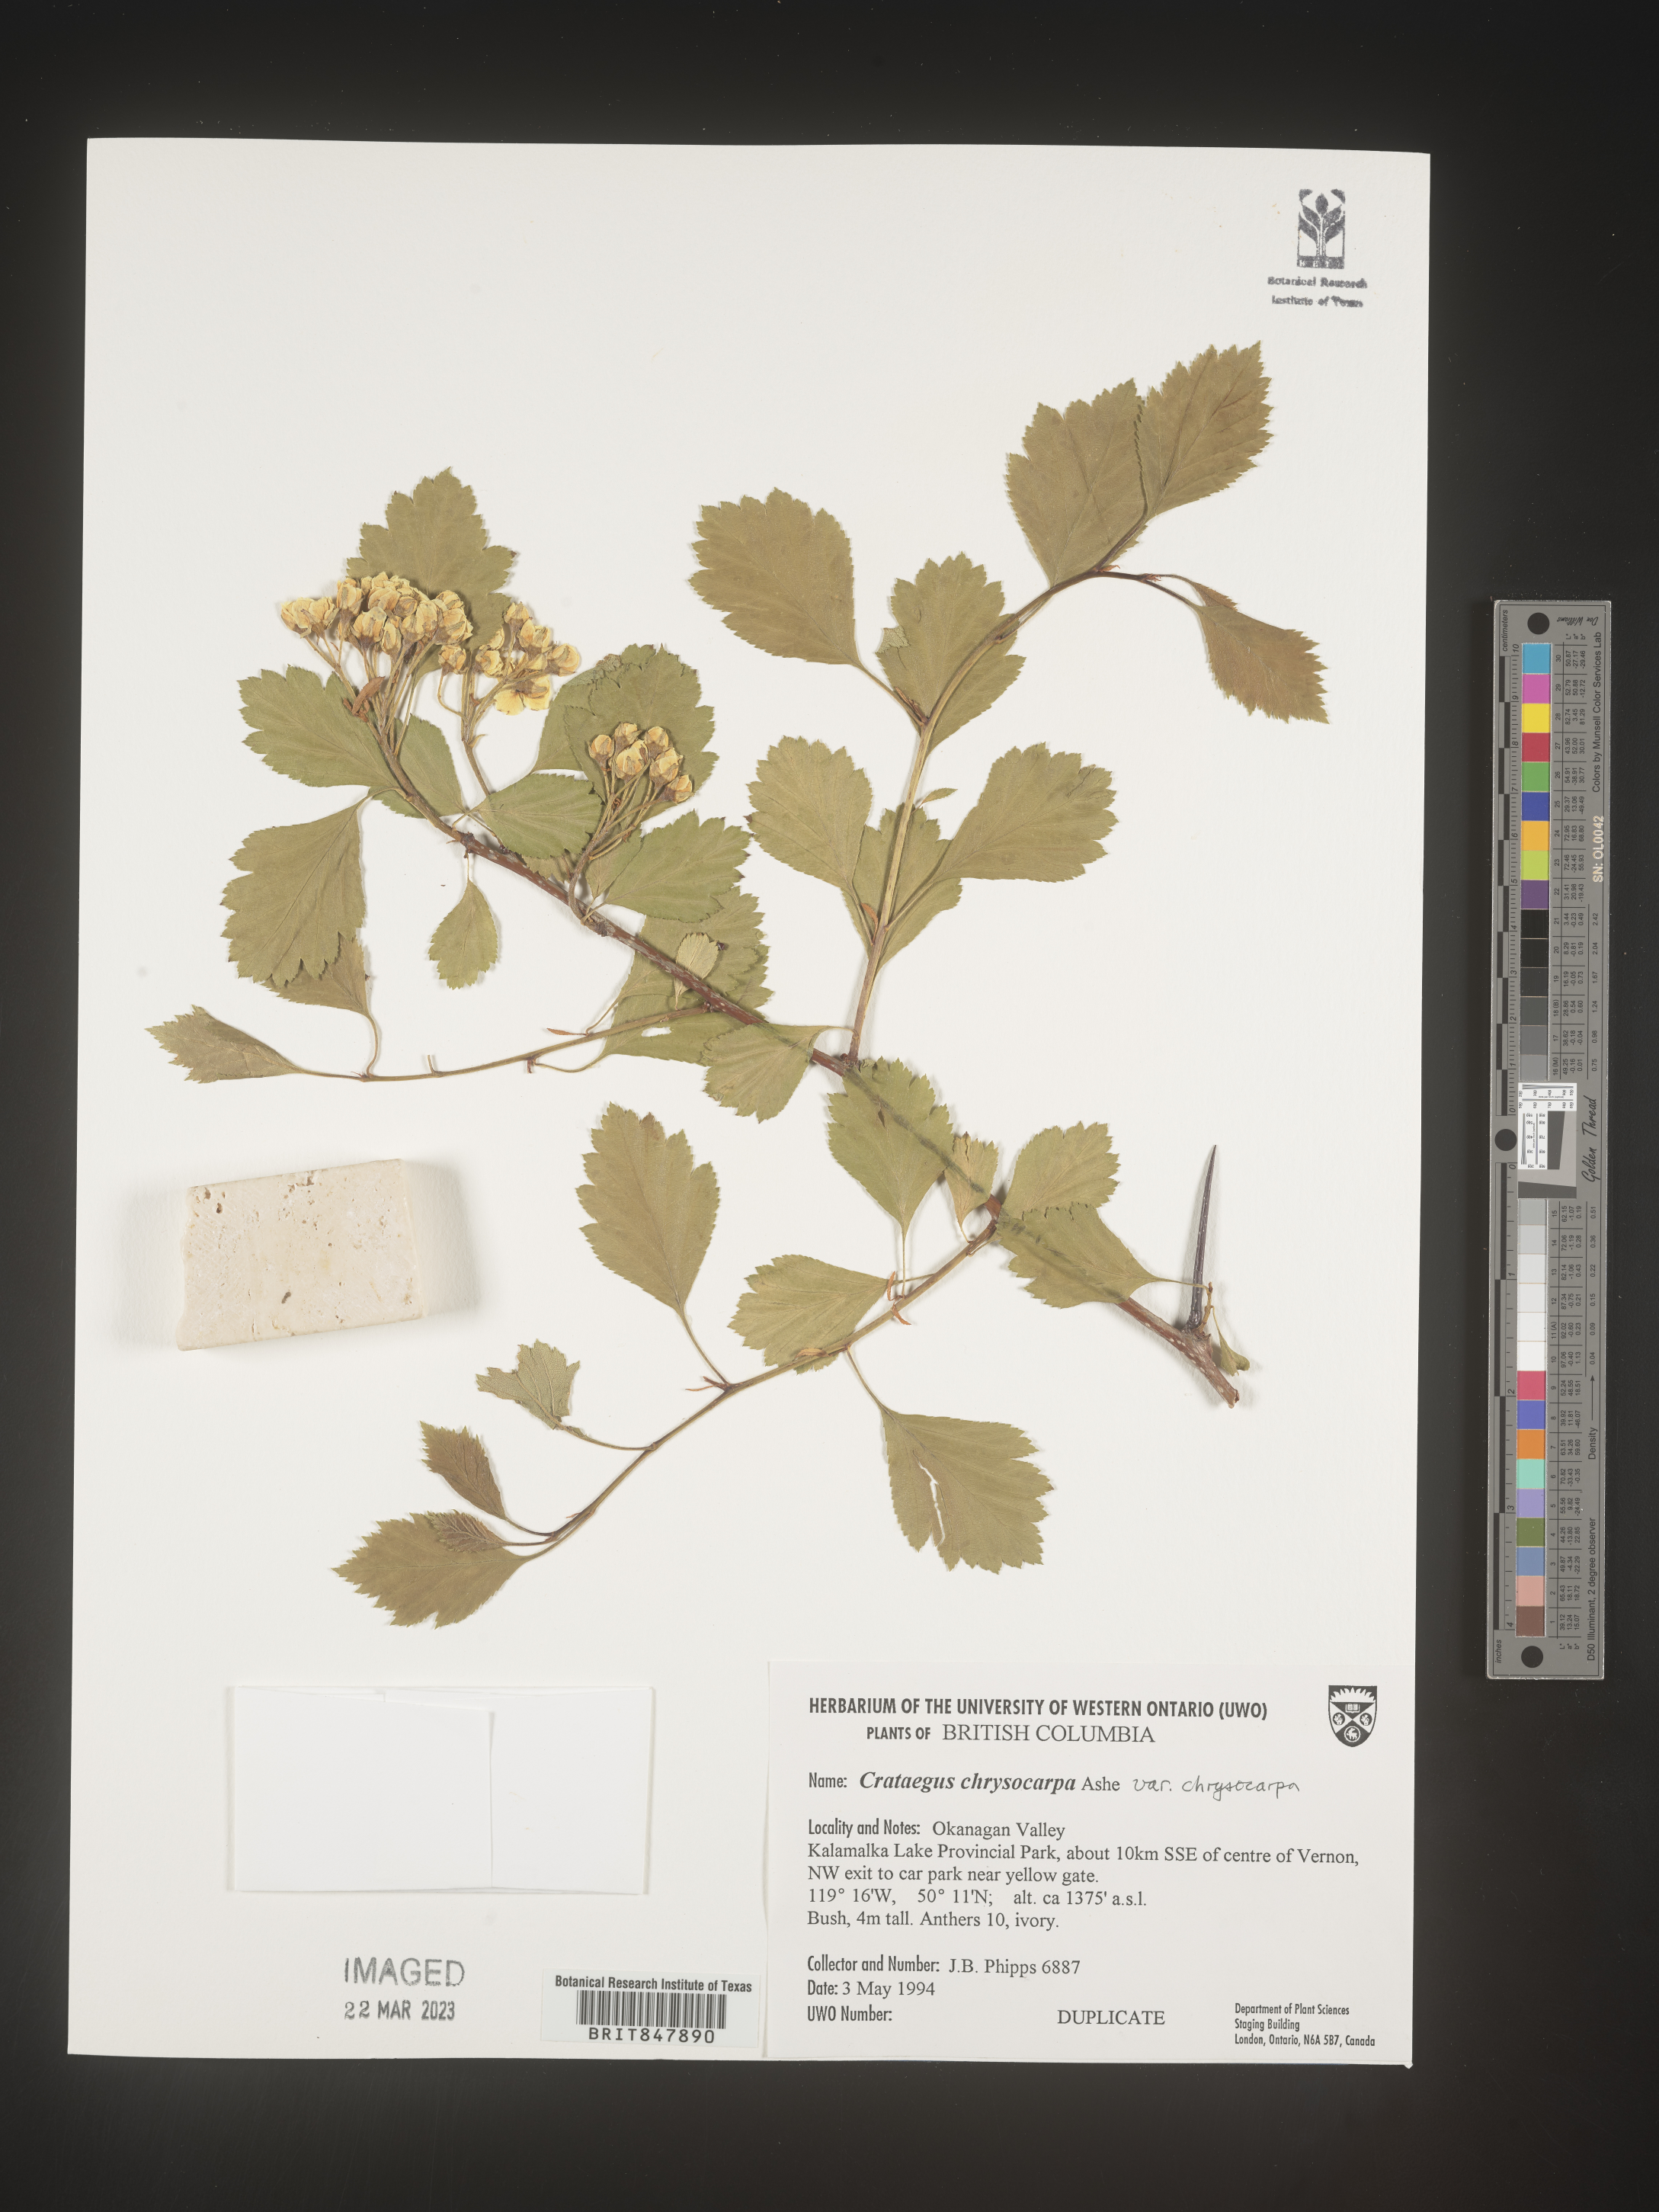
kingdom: Plantae
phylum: Tracheophyta
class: Magnoliopsida
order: Rosales
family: Rosaceae
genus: Crataegus
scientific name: Crataegus chrysocarpa
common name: Fire-berry hawthorn
